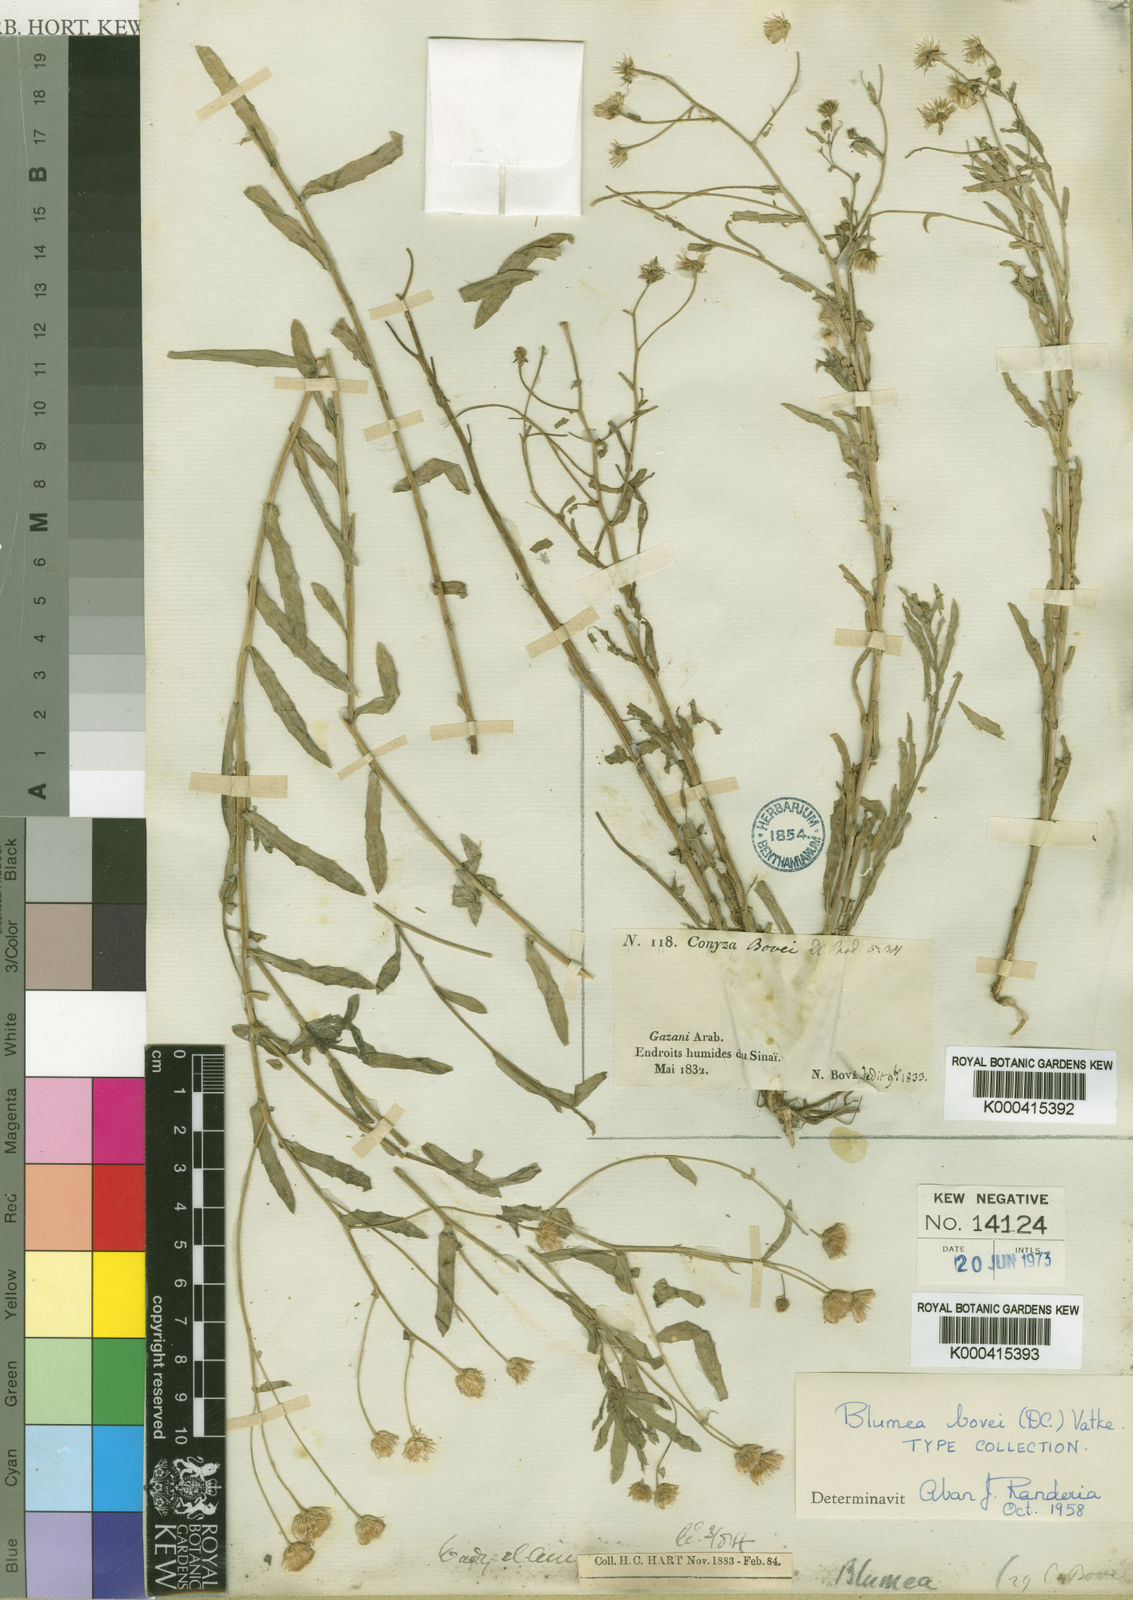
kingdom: Plantae
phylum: Tracheophyta
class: Magnoliopsida
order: Asterales
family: Asteraceae
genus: Doellia
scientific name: Doellia bovei
